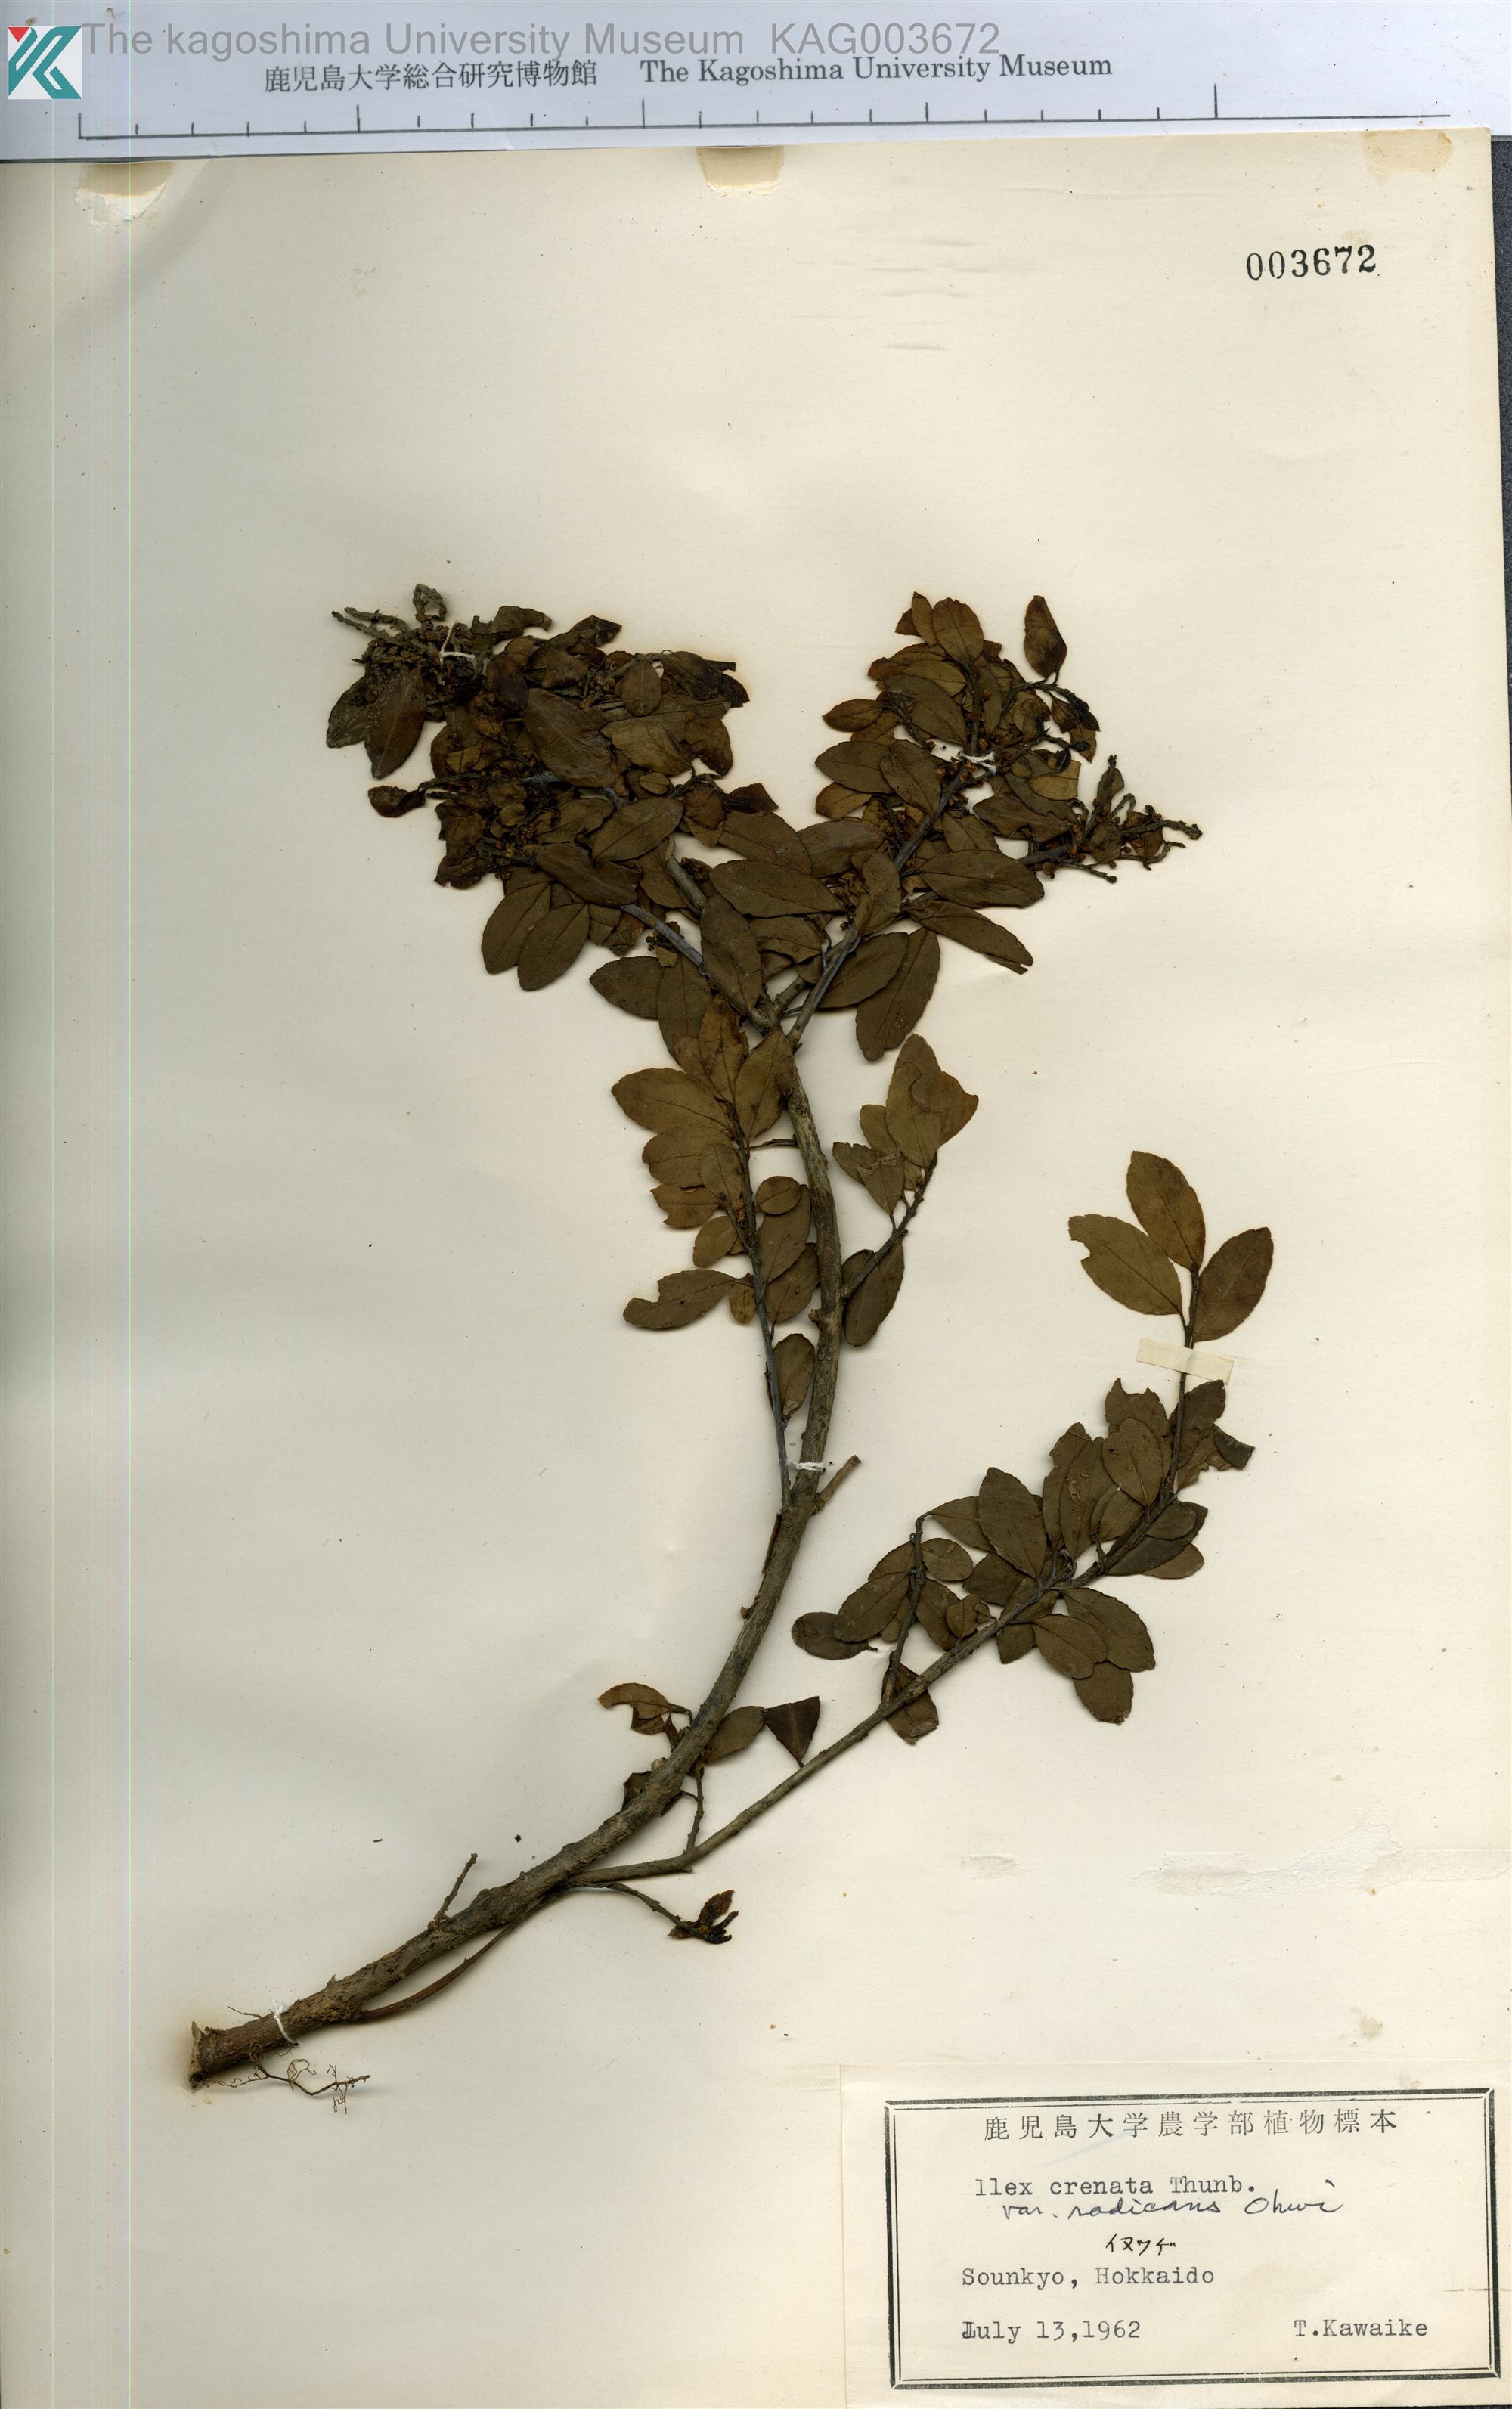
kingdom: Plantae
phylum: Tracheophyta
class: Magnoliopsida
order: Aquifoliales
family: Aquifoliaceae
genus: Ilex
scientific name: Ilex crenata
